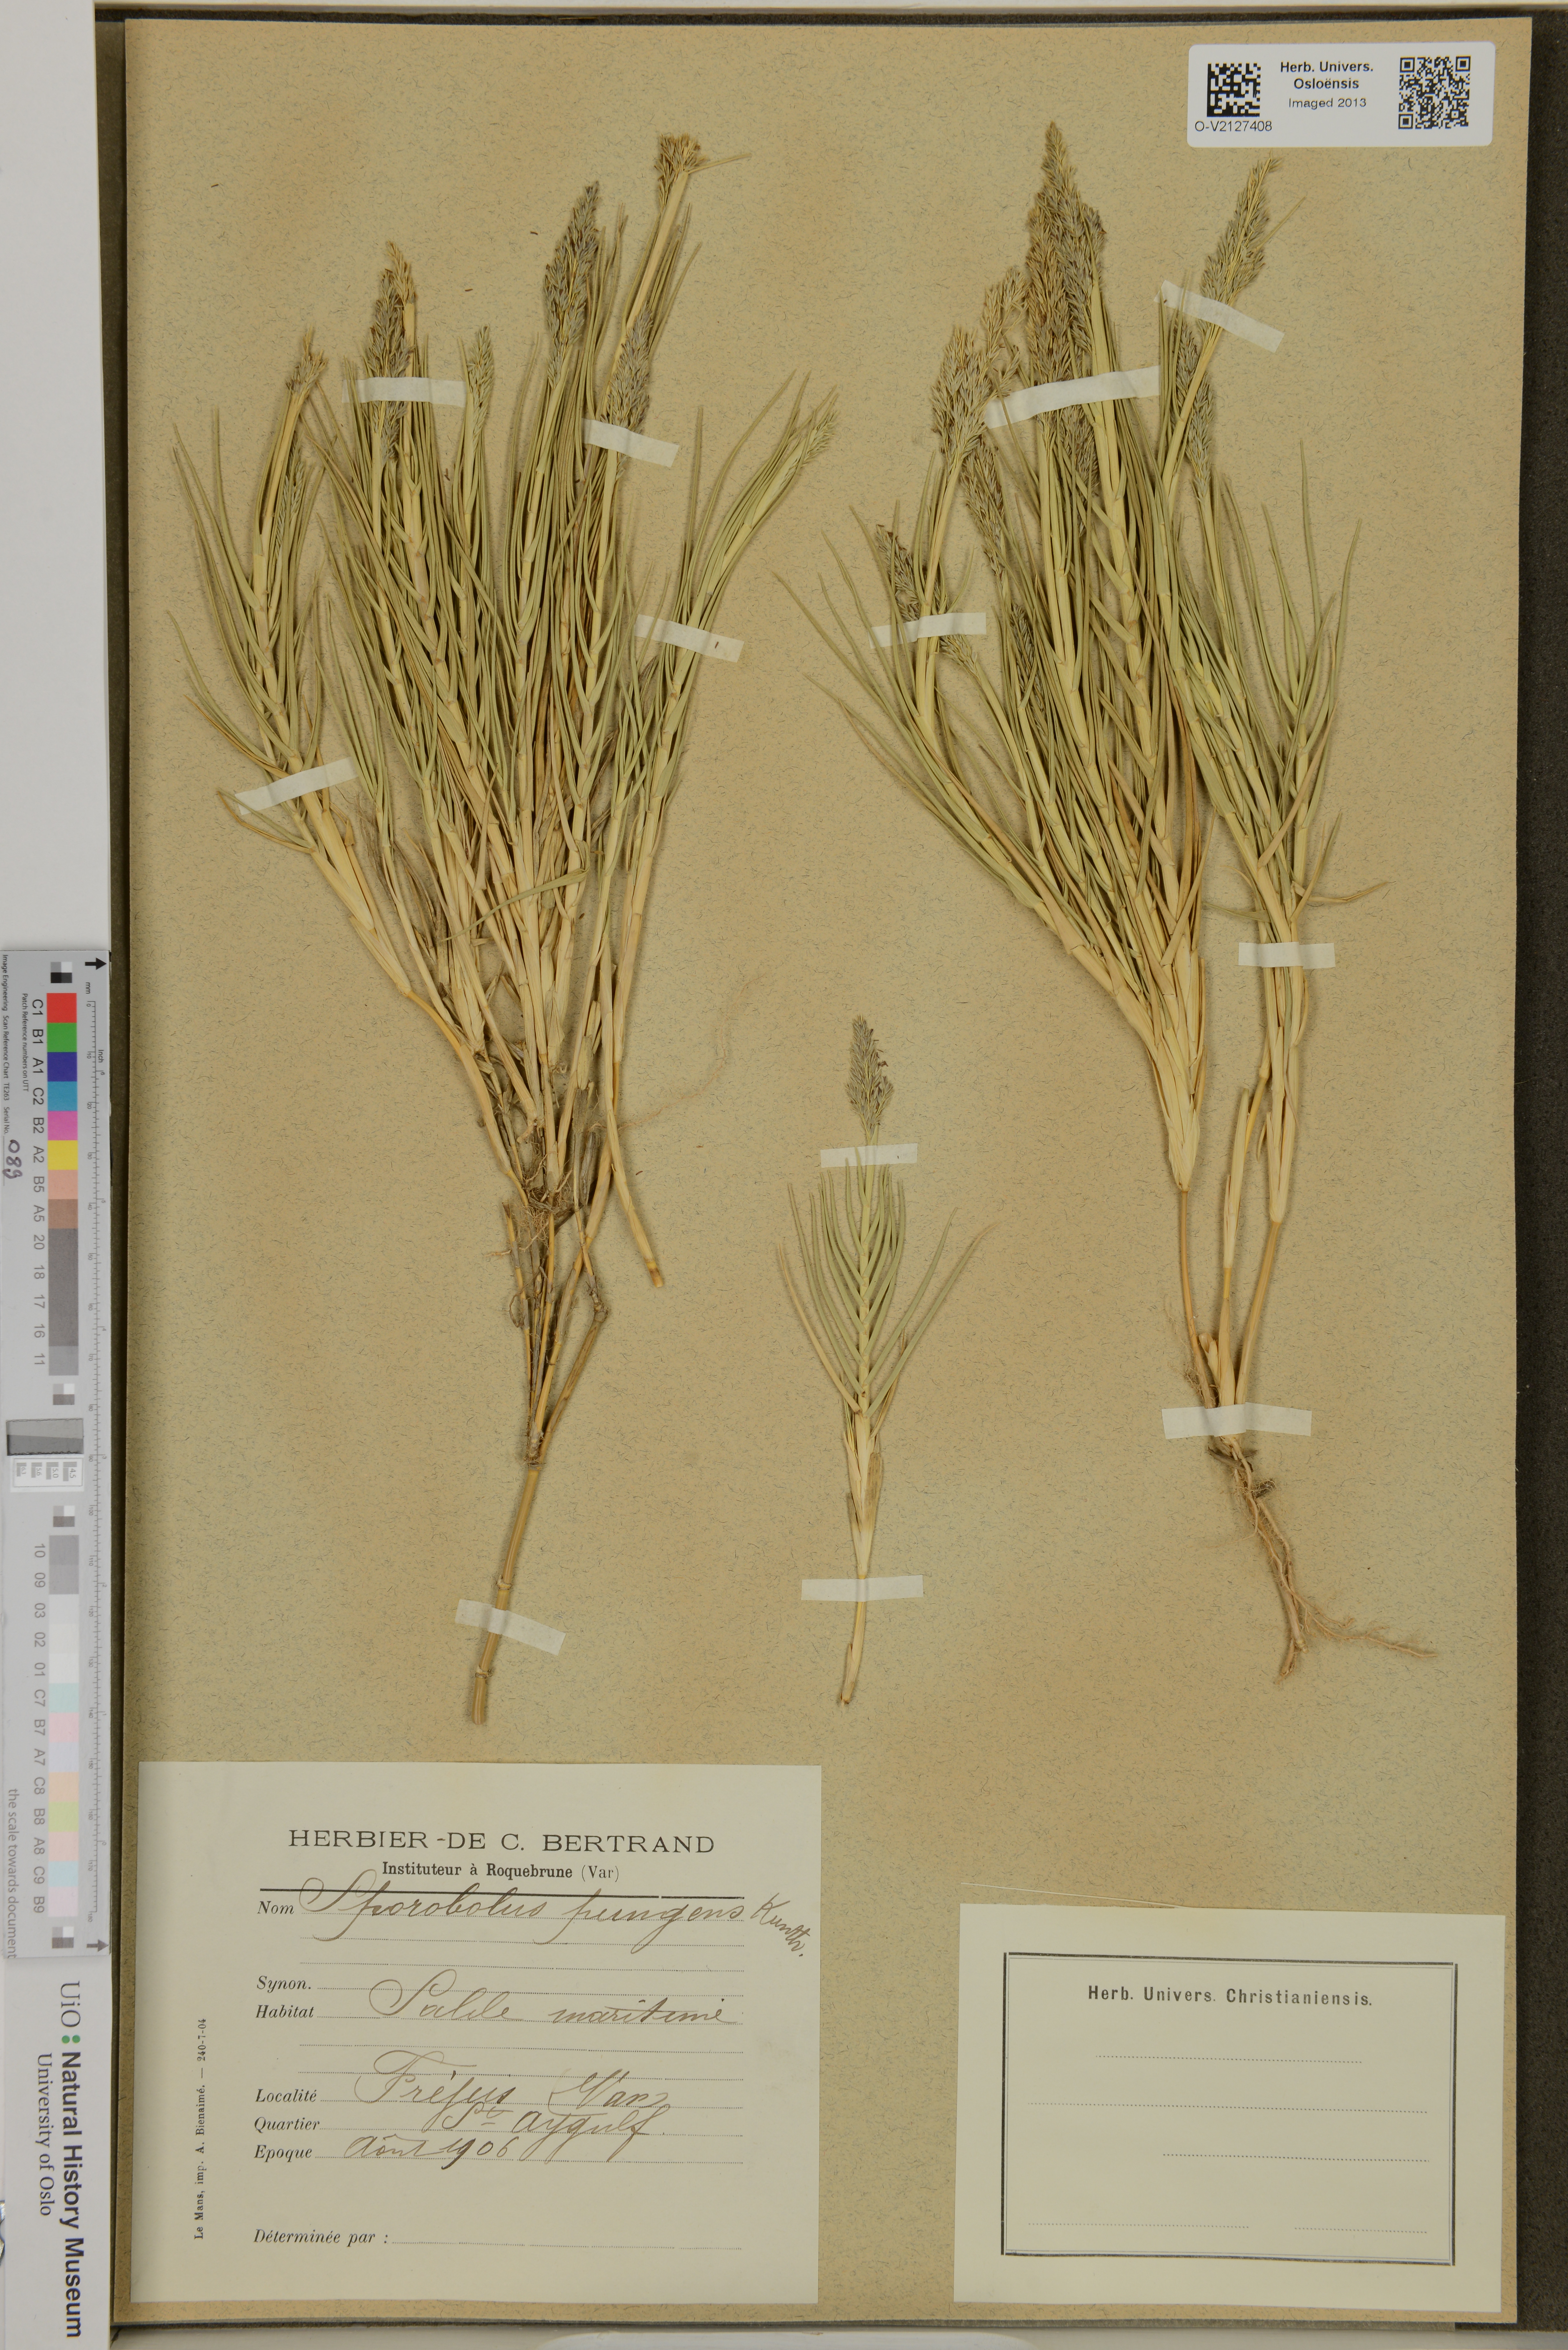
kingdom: Plantae
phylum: Tracheophyta
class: Liliopsida
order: Poales
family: Poaceae
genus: Sporobolus
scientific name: Sporobolus pungens
